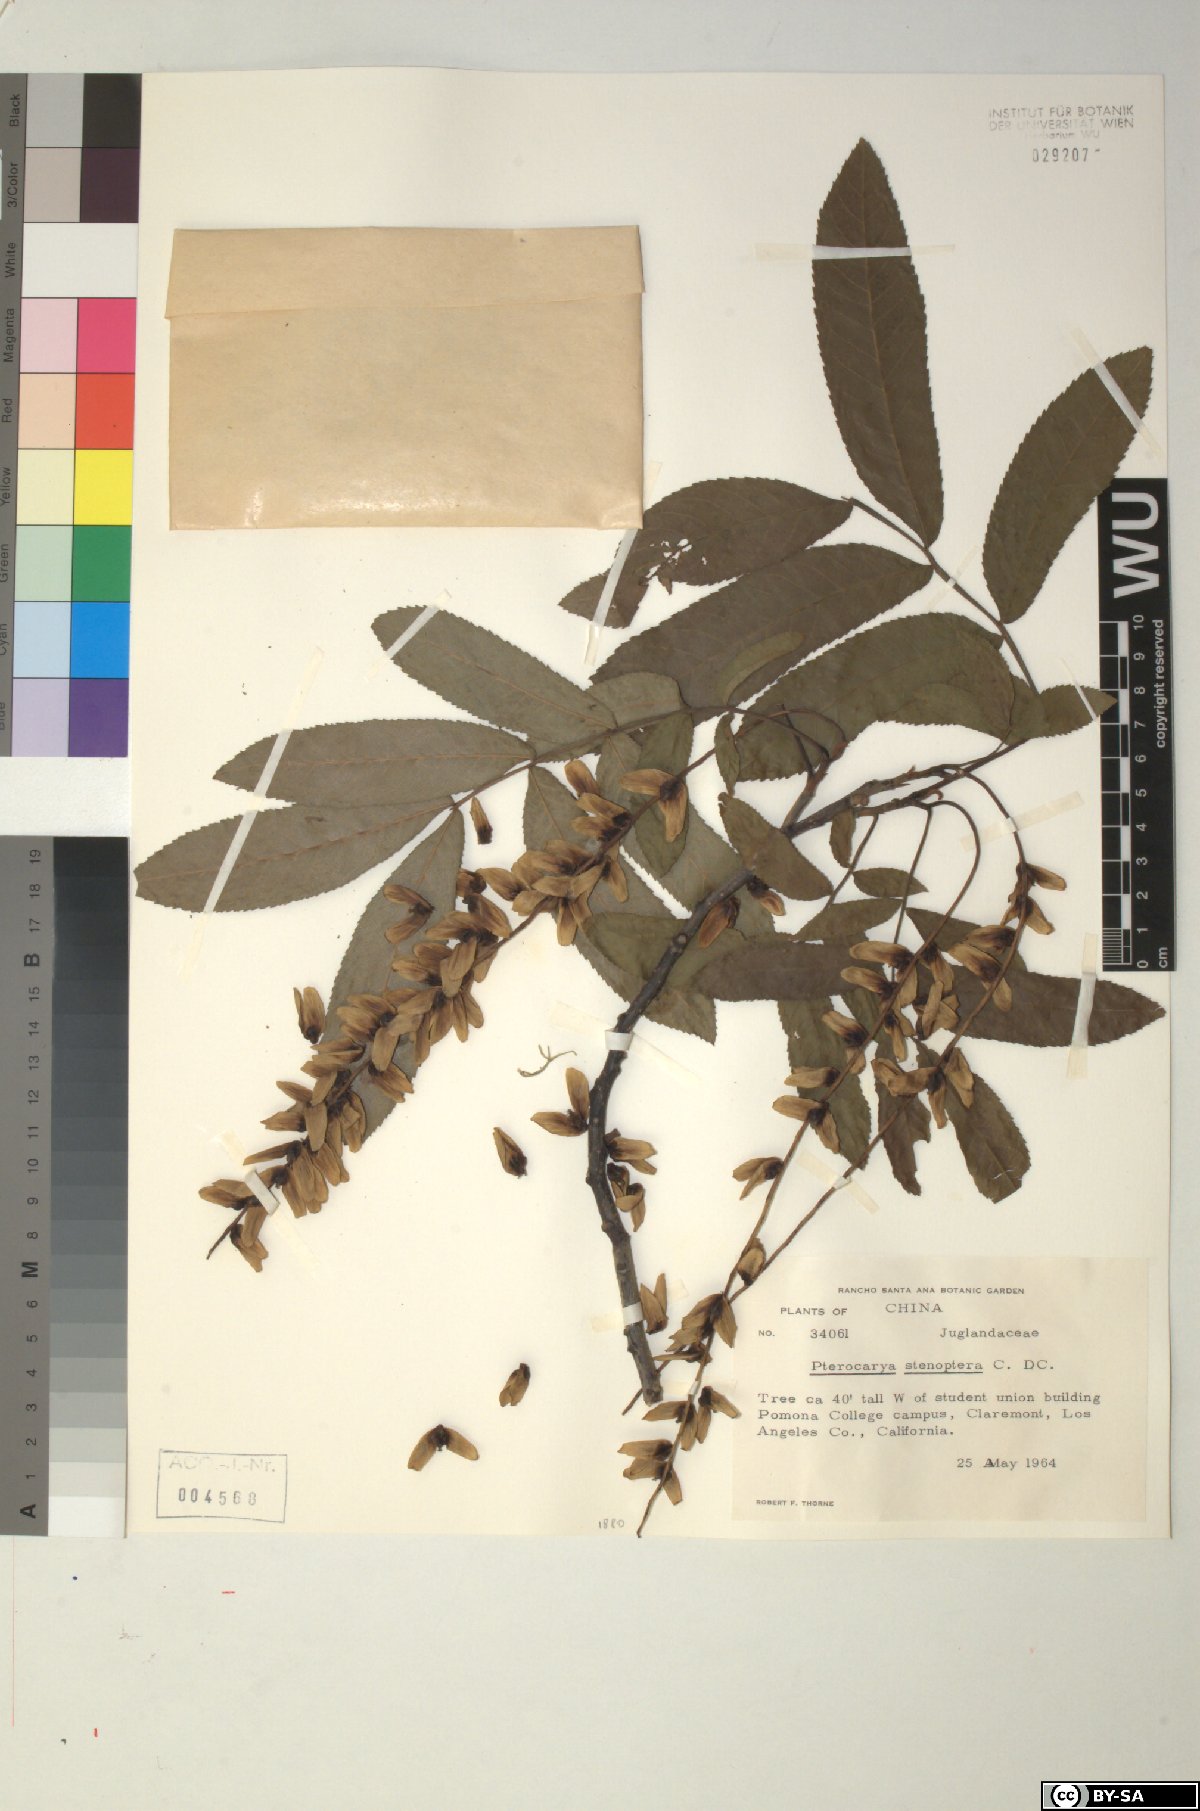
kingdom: Plantae
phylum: Tracheophyta
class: Magnoliopsida
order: Fagales
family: Juglandaceae
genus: Pterocarya
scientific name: Pterocarya stenoptera
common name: Chinese wingnut
